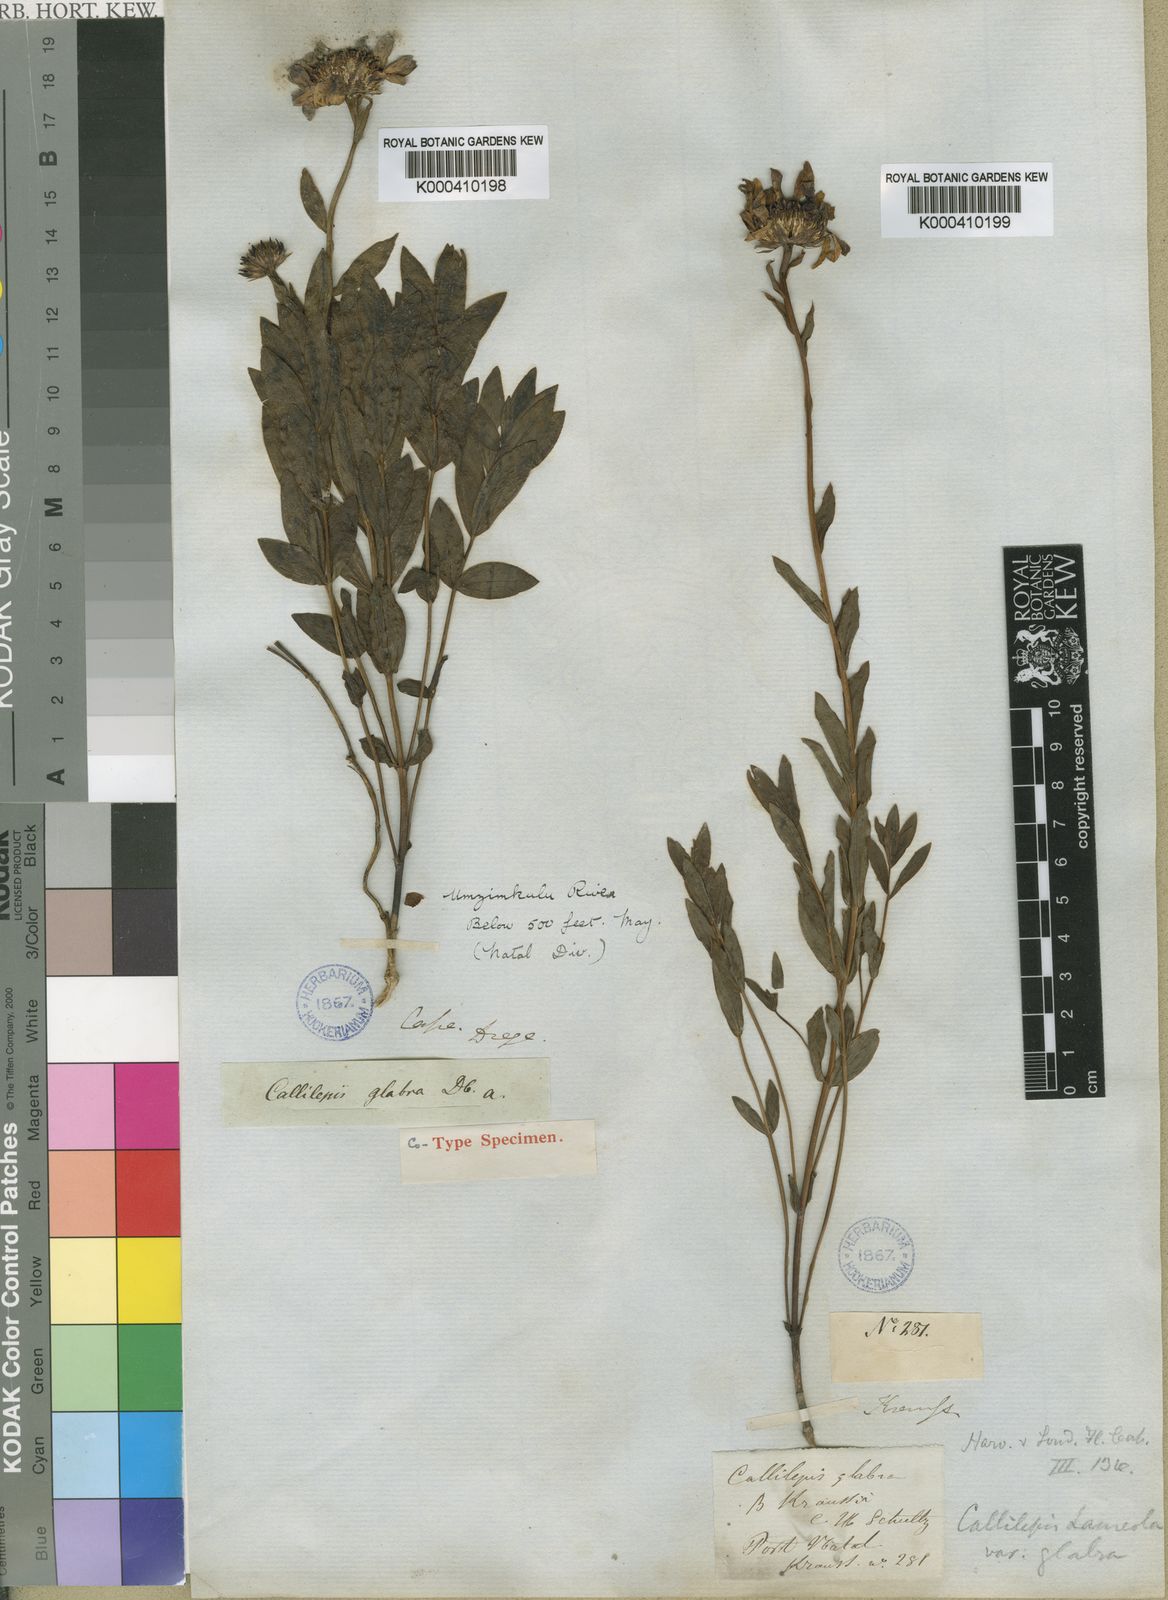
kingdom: Plantae
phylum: Tracheophyta
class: Magnoliopsida
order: Asterales
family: Asteraceae
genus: Callilepis
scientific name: Callilepis laureola
